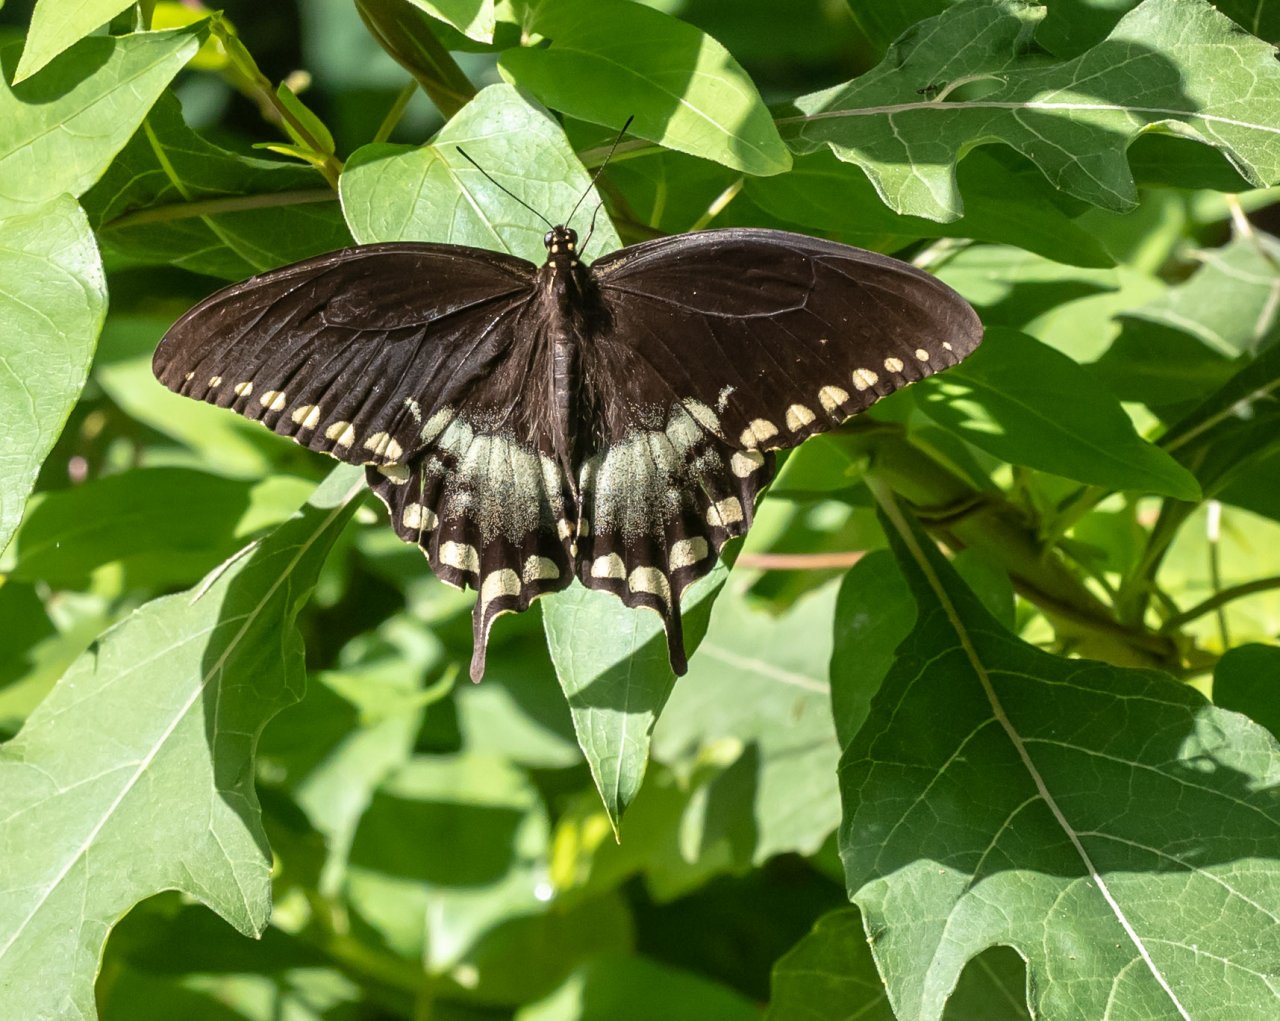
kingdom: Animalia
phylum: Arthropoda
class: Insecta
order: Lepidoptera
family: Papilionidae
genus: Pterourus
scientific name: Pterourus troilus
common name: Spicebush Swallowtail
